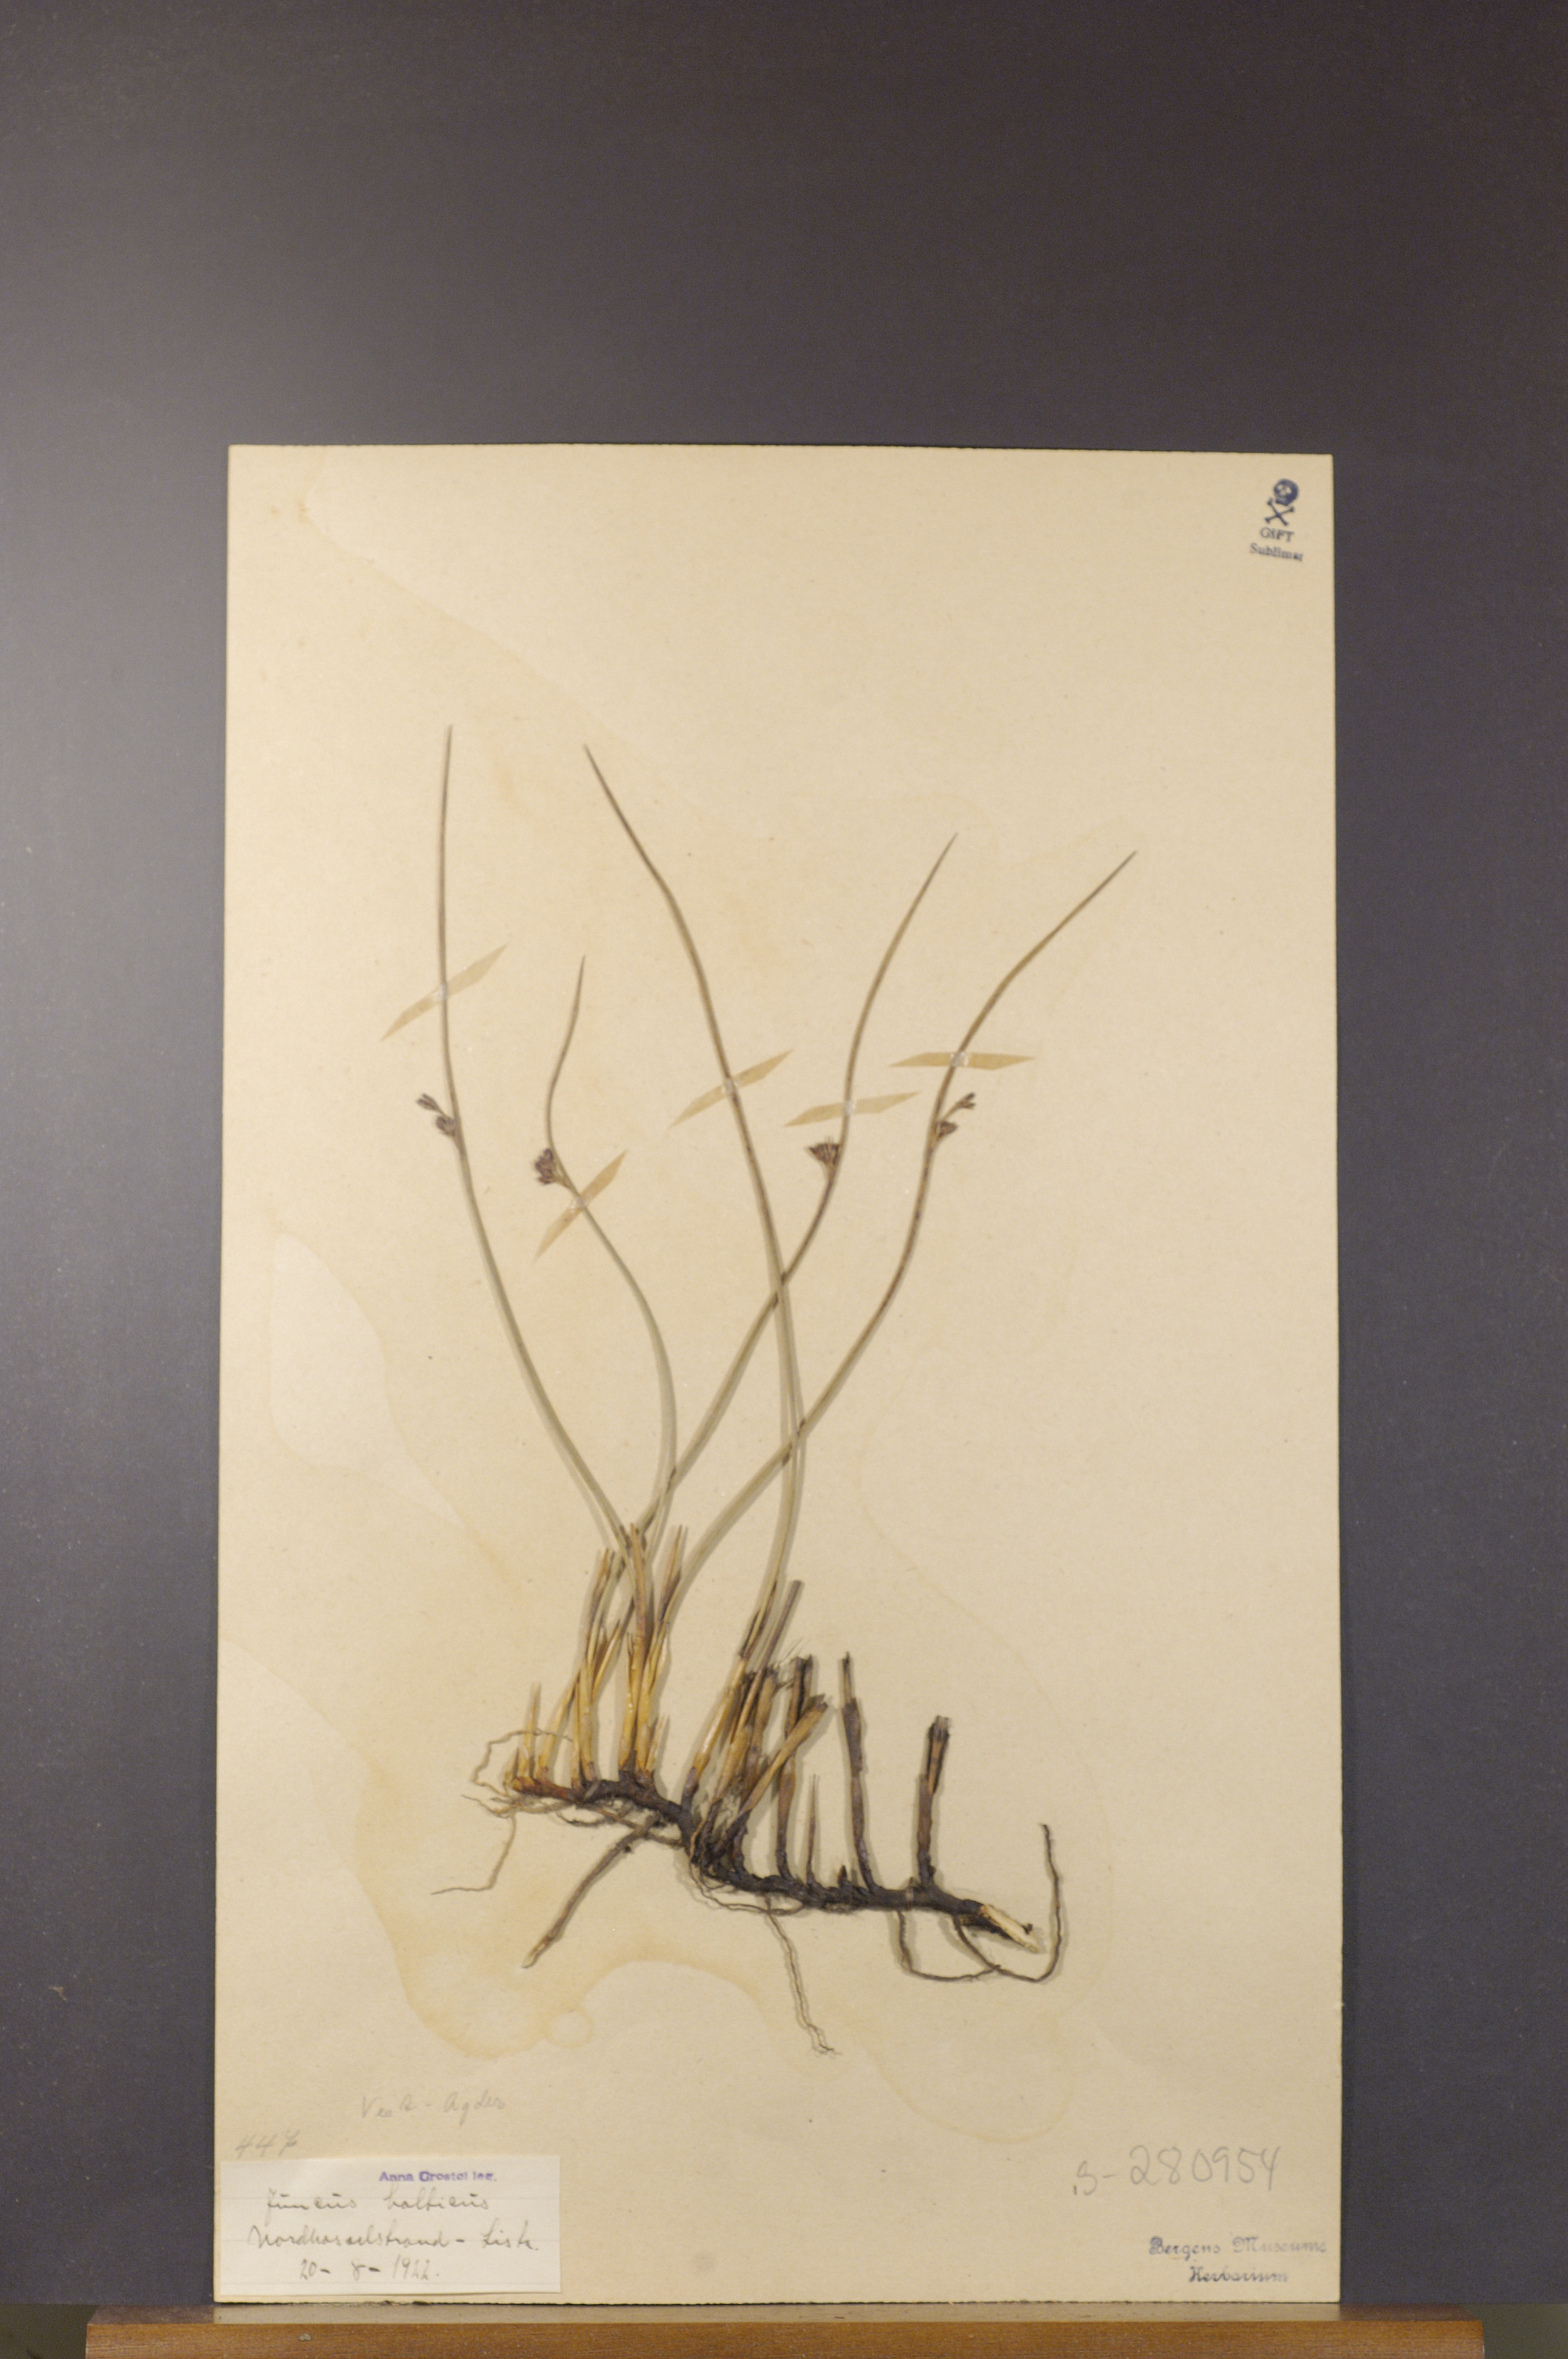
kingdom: Plantae
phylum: Tracheophyta
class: Liliopsida
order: Poales
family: Juncaceae
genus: Juncus
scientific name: Juncus balticus
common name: Baltic rush
